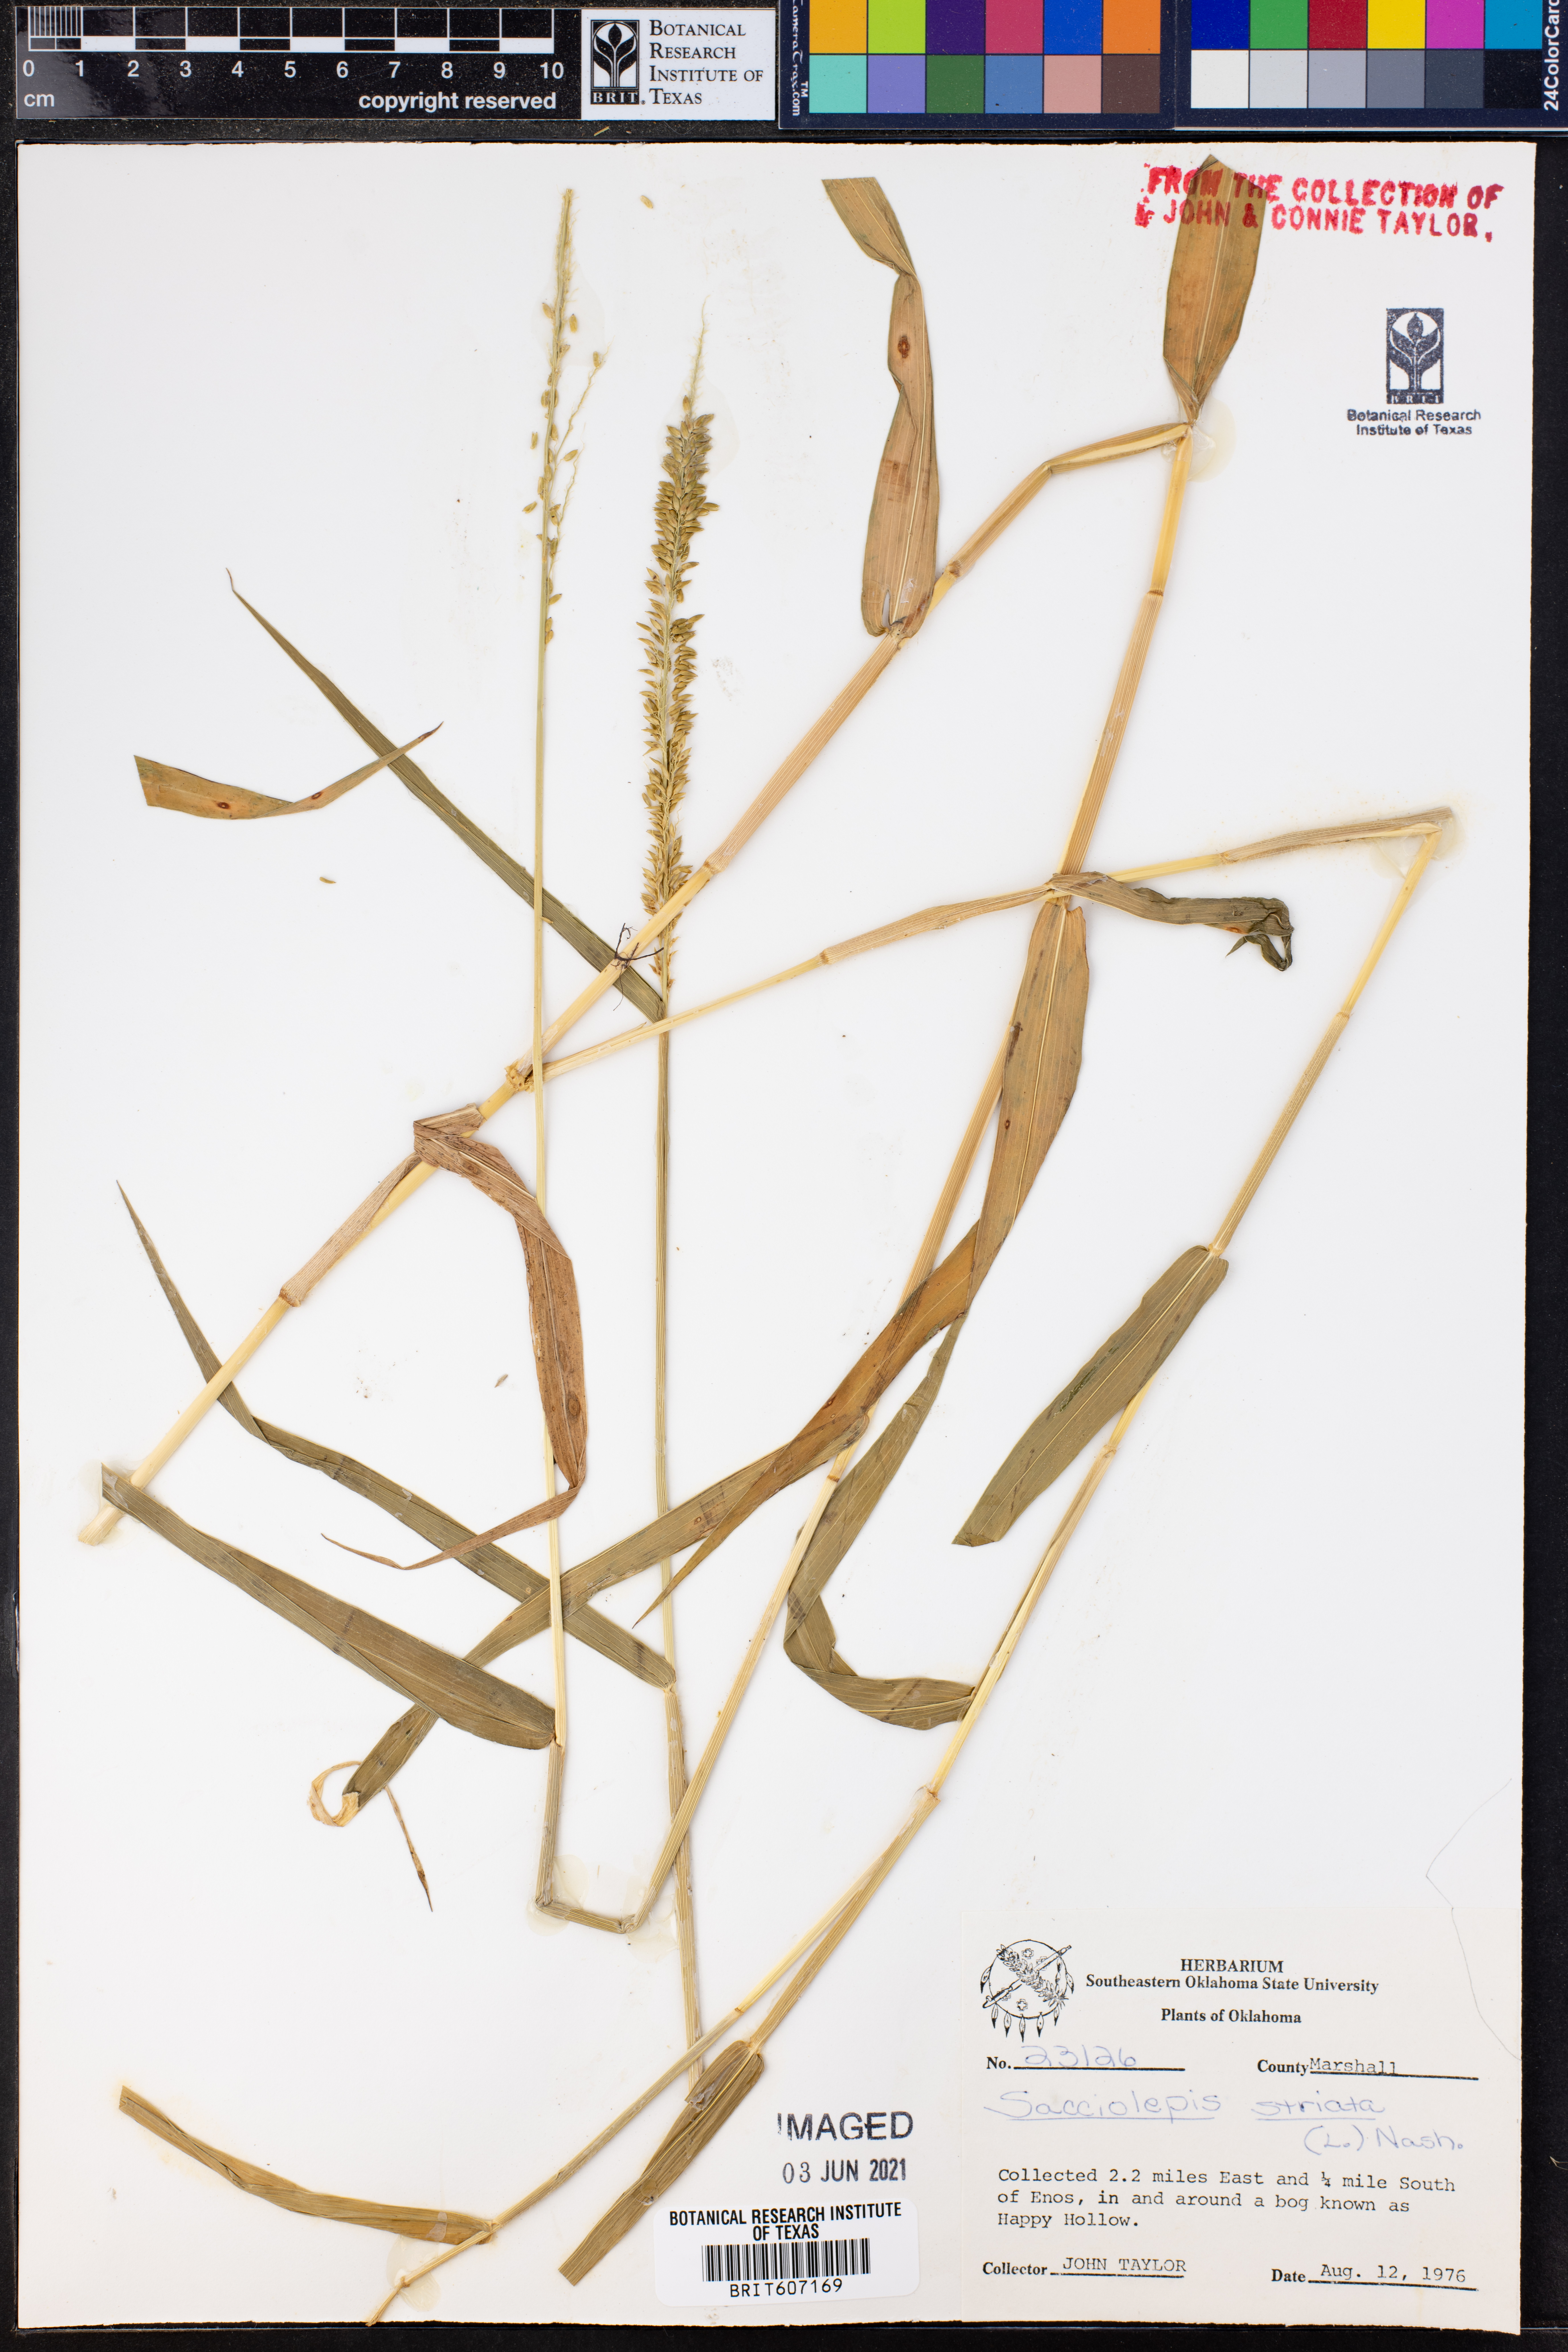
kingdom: Plantae
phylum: Tracheophyta
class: Liliopsida
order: Poales
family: Poaceae
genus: Sacciolepis
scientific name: Sacciolepis striata
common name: American cupscale
